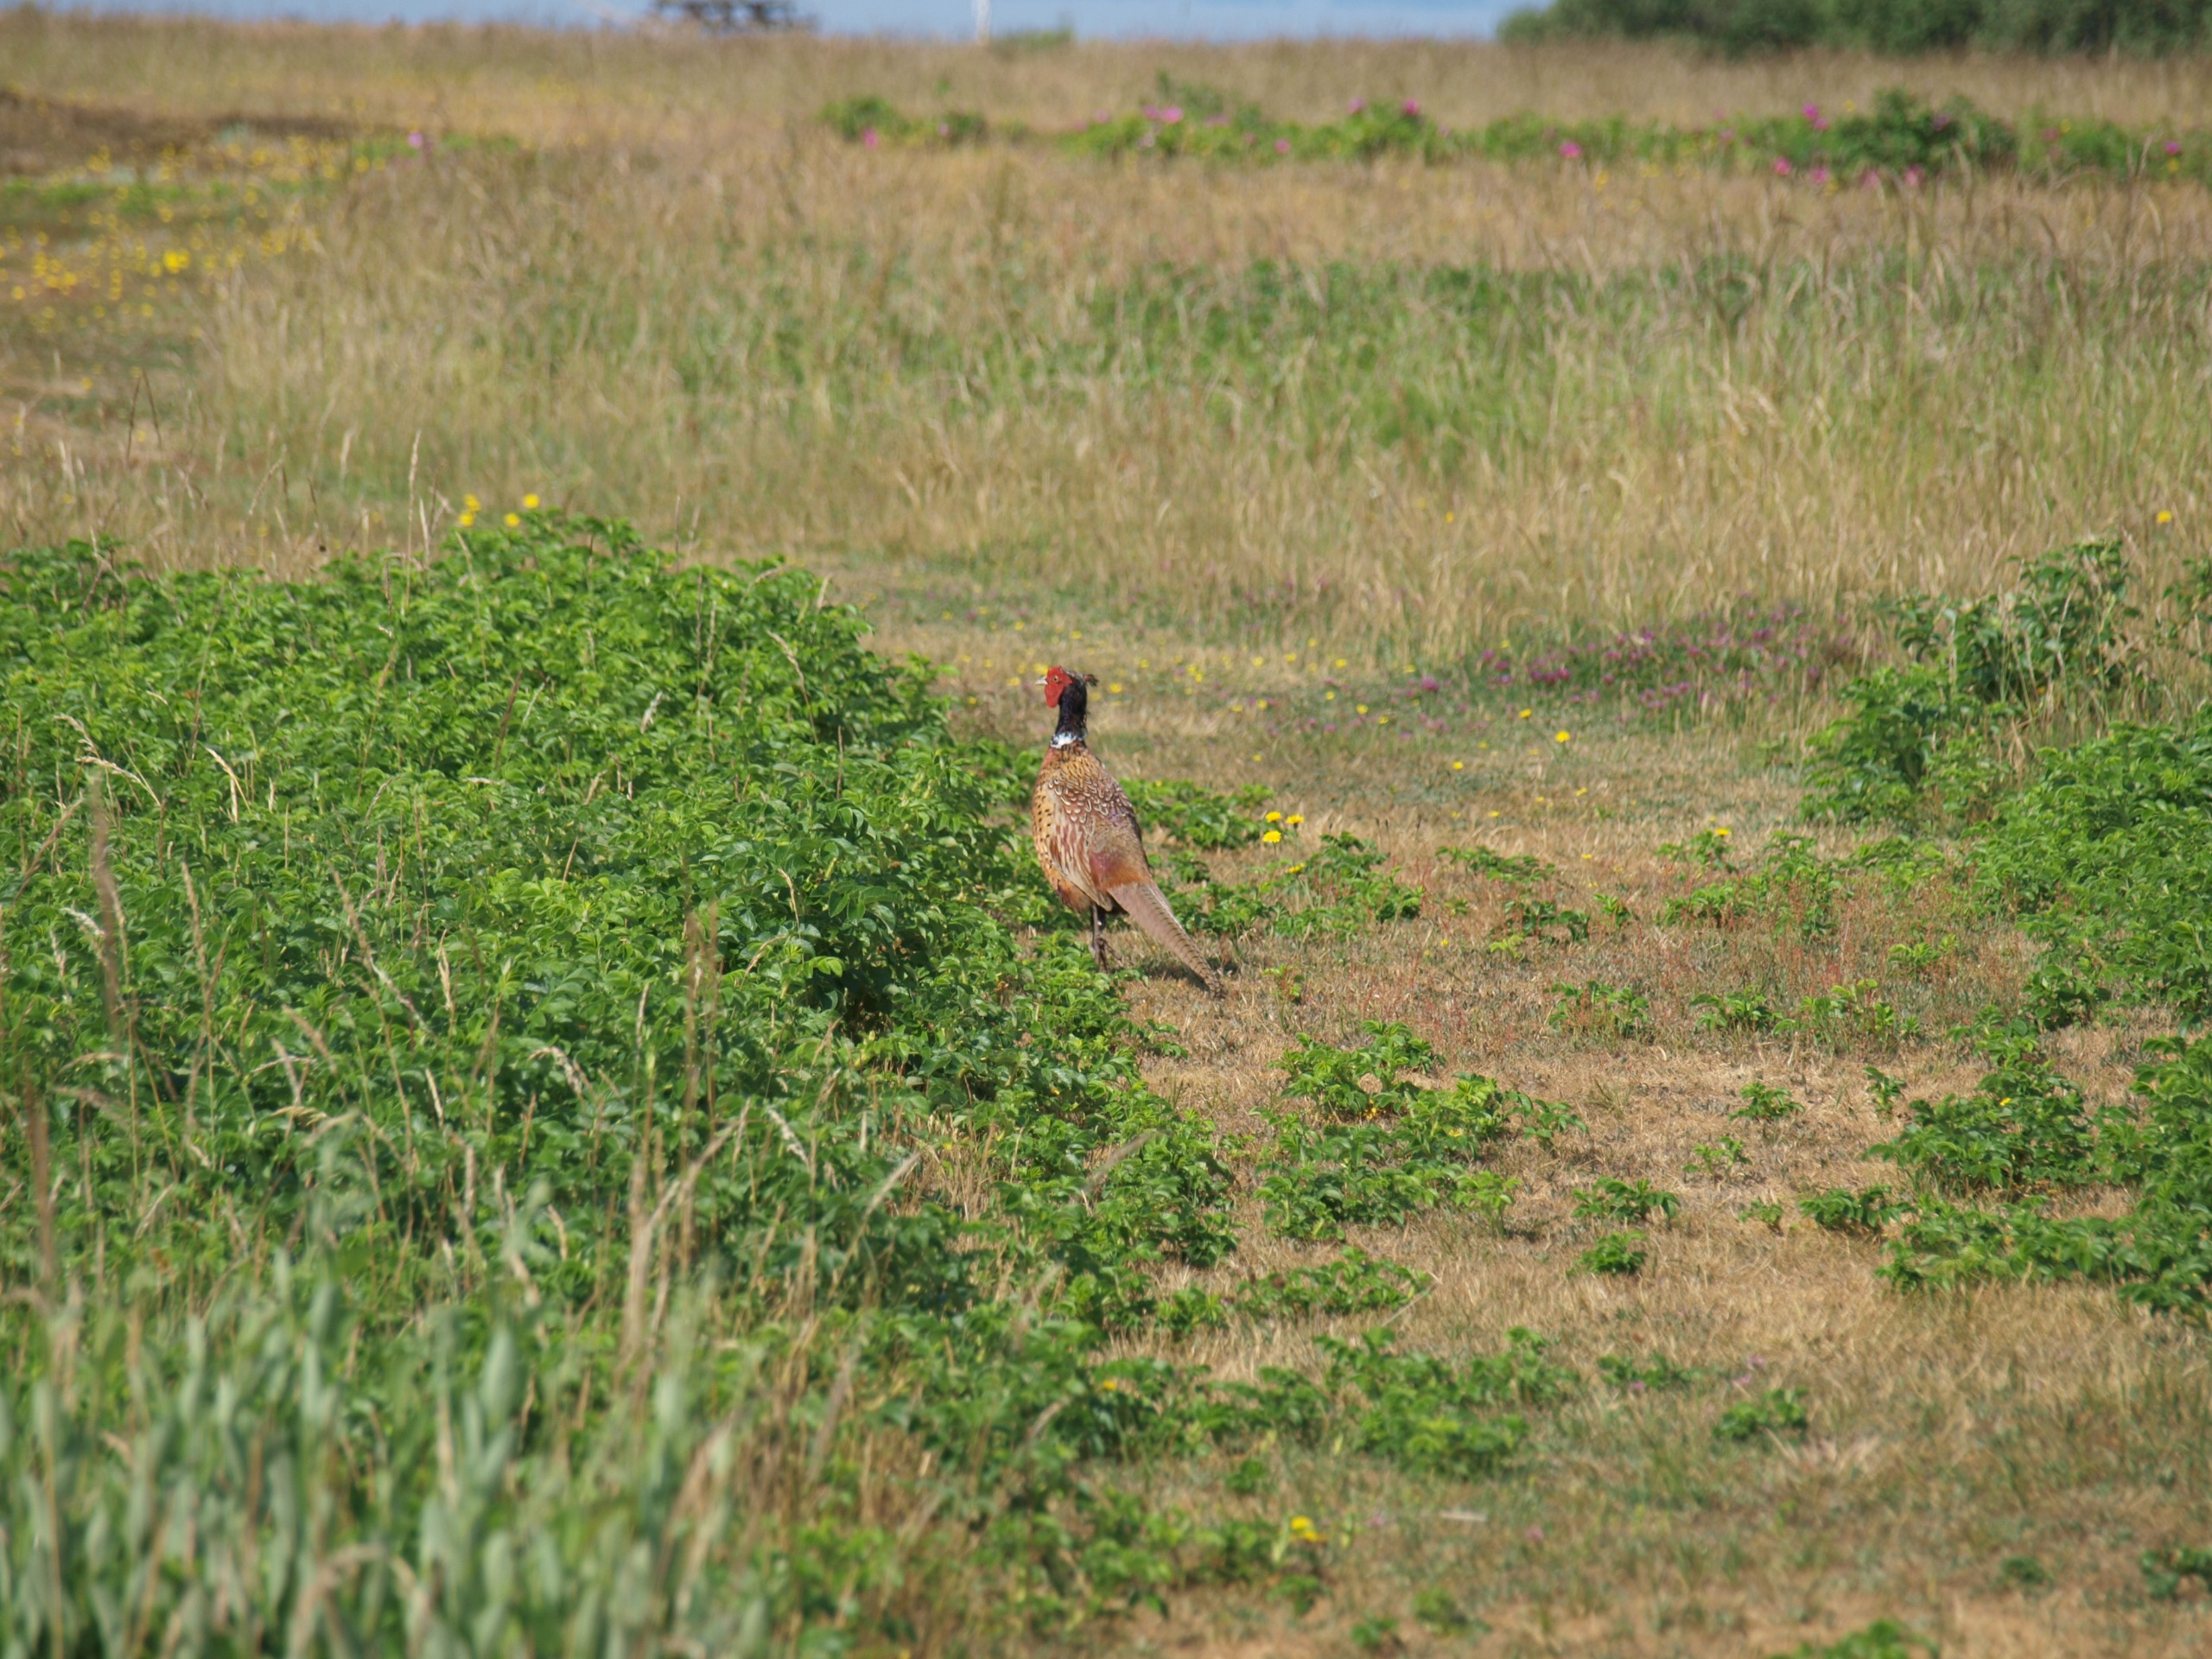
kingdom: Animalia
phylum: Chordata
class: Aves
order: Galliformes
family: Phasianidae
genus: Phasianus
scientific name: Phasianus colchicus
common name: Fasan
